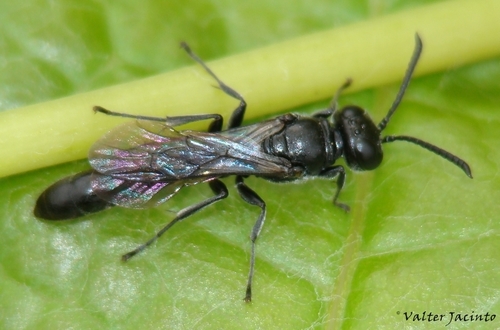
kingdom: Animalia
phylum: Arthropoda
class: Insecta
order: Hymenoptera
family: Crabronidae
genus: Trypoxylon
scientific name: Trypoxylon figulus
